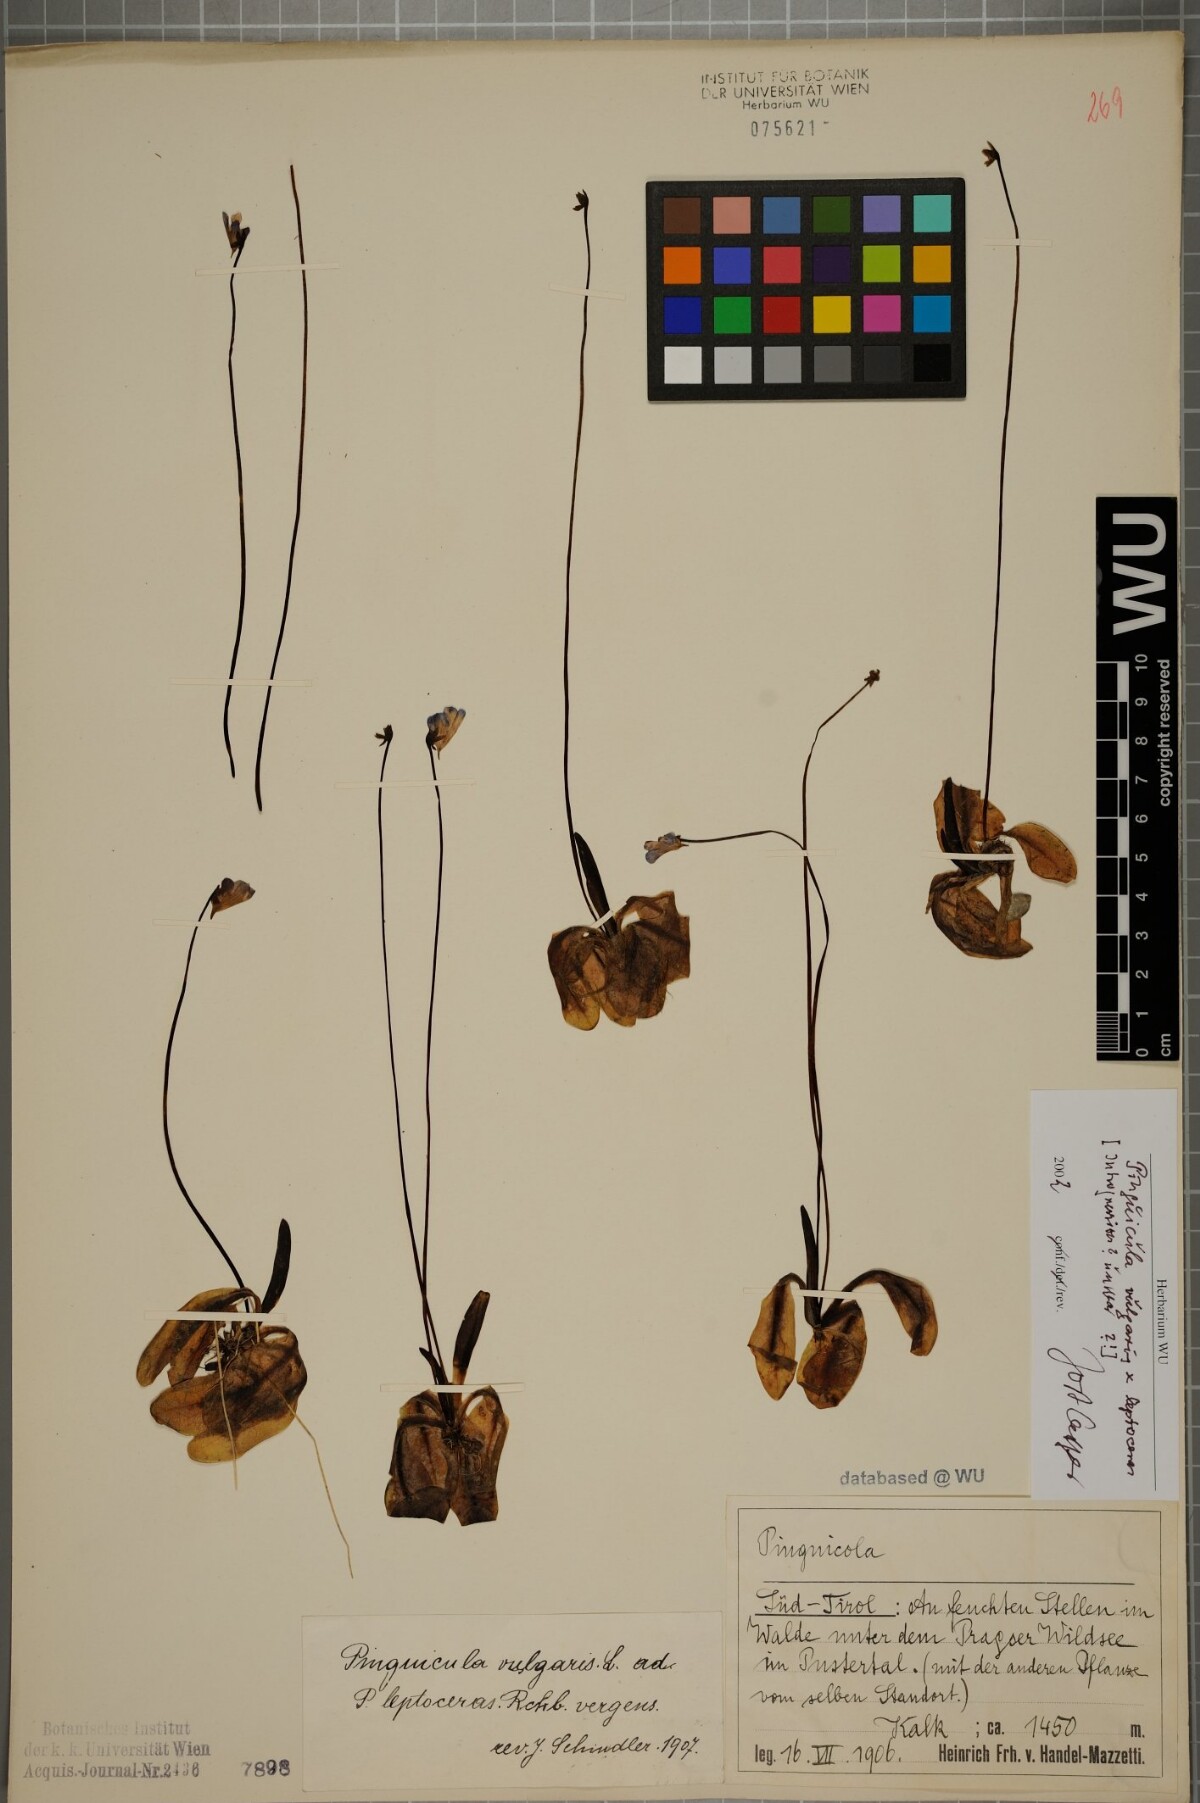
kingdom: Plantae
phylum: Tracheophyta
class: Magnoliopsida
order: Lamiales
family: Lentibulariaceae
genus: Pinguicula
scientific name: Pinguicula vulgaris
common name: Common butterwort
